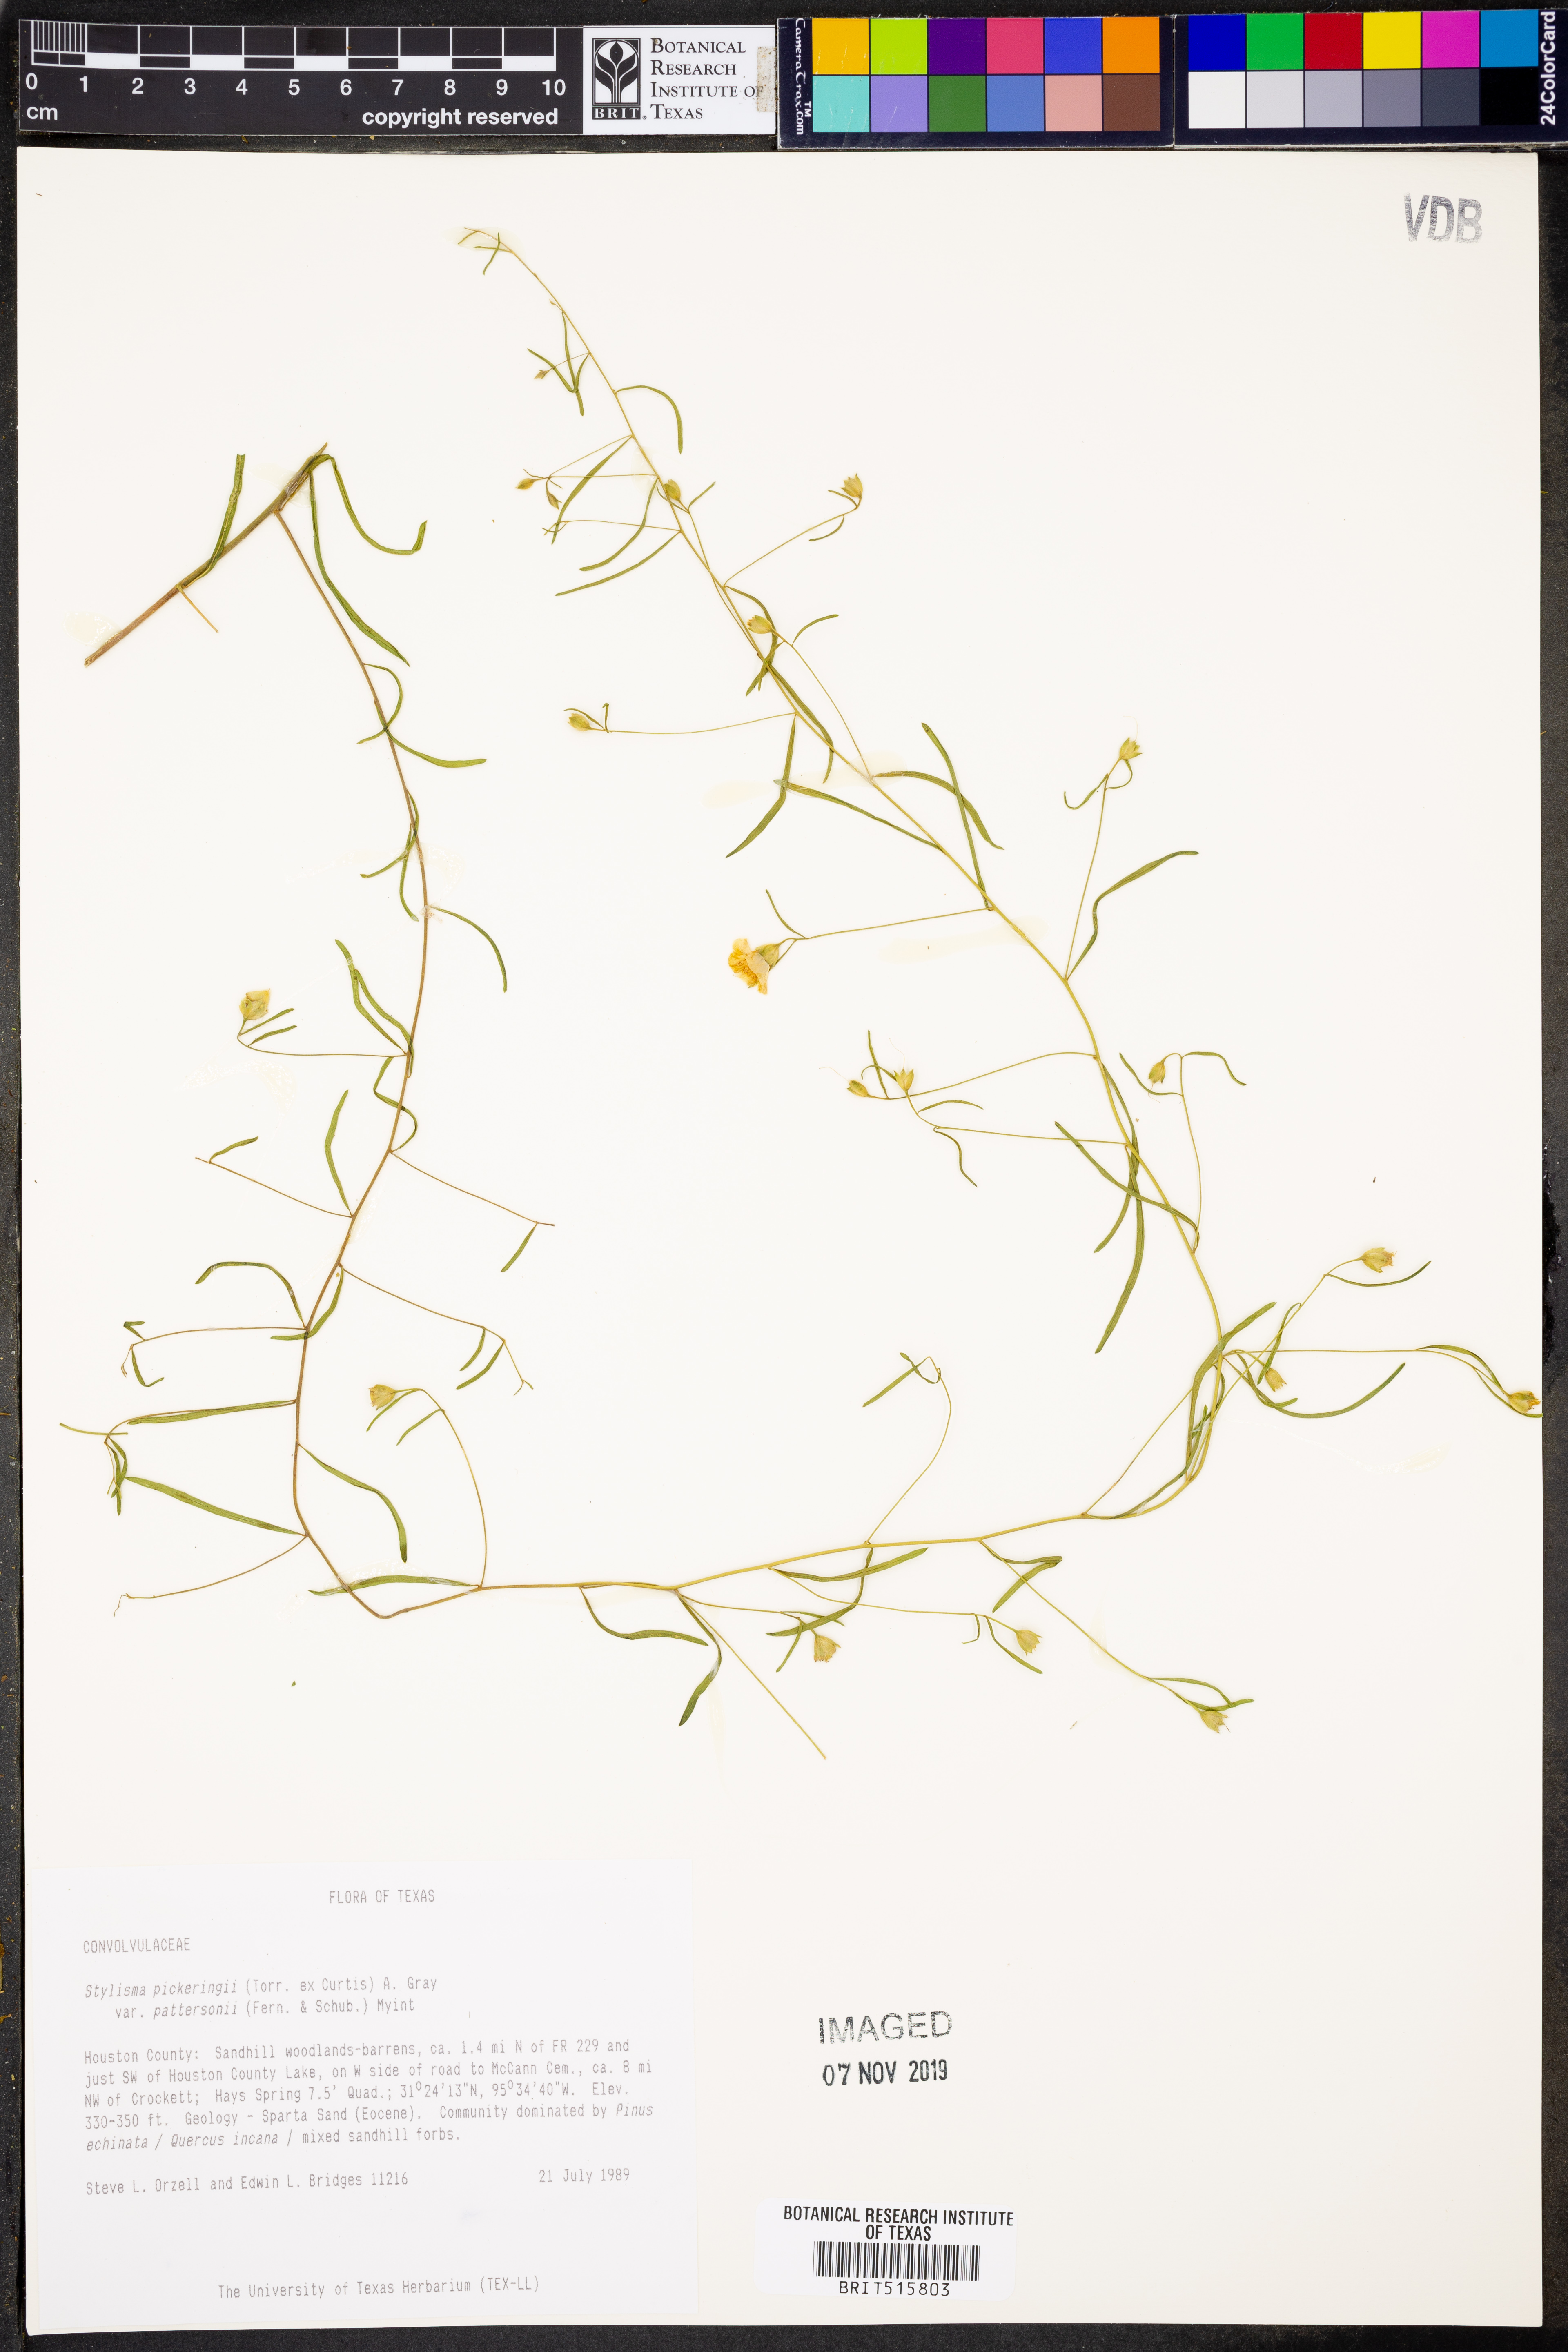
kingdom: Plantae
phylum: Tracheophyta
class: Magnoliopsida
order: Solanales
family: Convolvulaceae
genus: Stylisma
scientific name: Stylisma pickeringii
